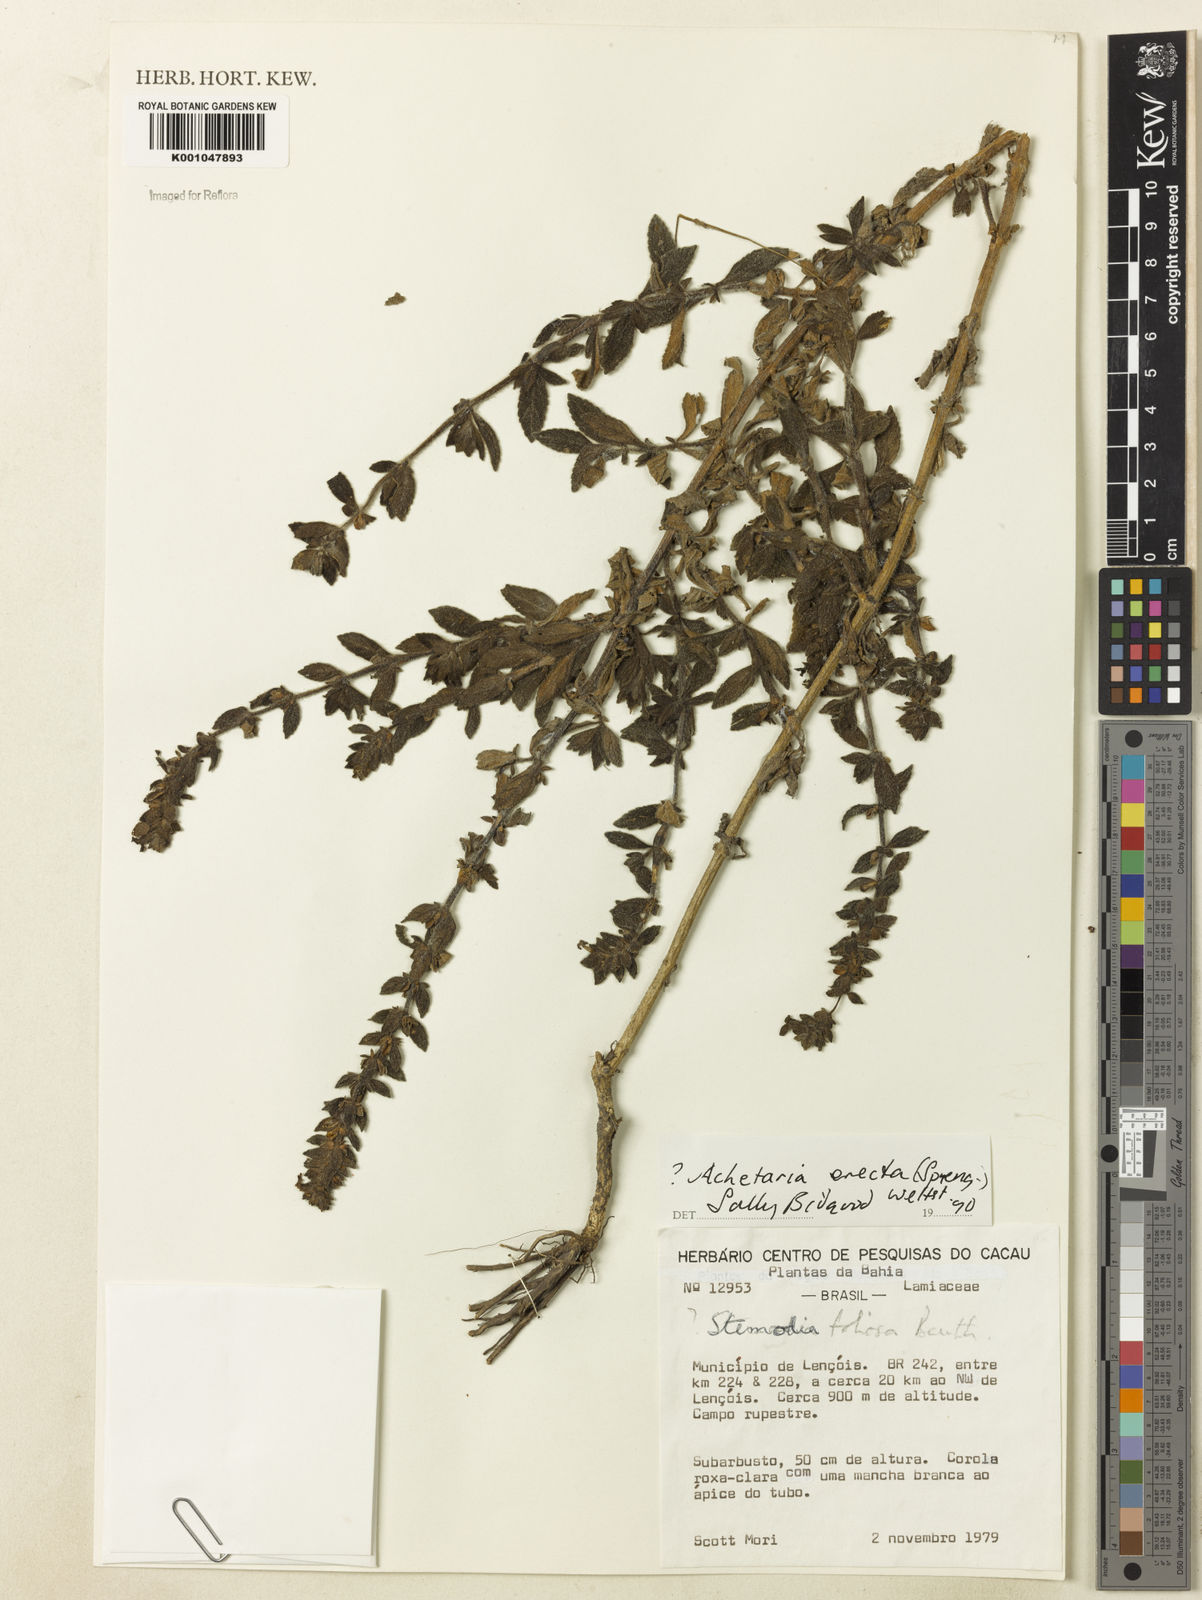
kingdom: Plantae
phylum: Tracheophyta
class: Magnoliopsida
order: Lamiales
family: Plantaginaceae
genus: Matourea
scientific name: Matourea erecta
